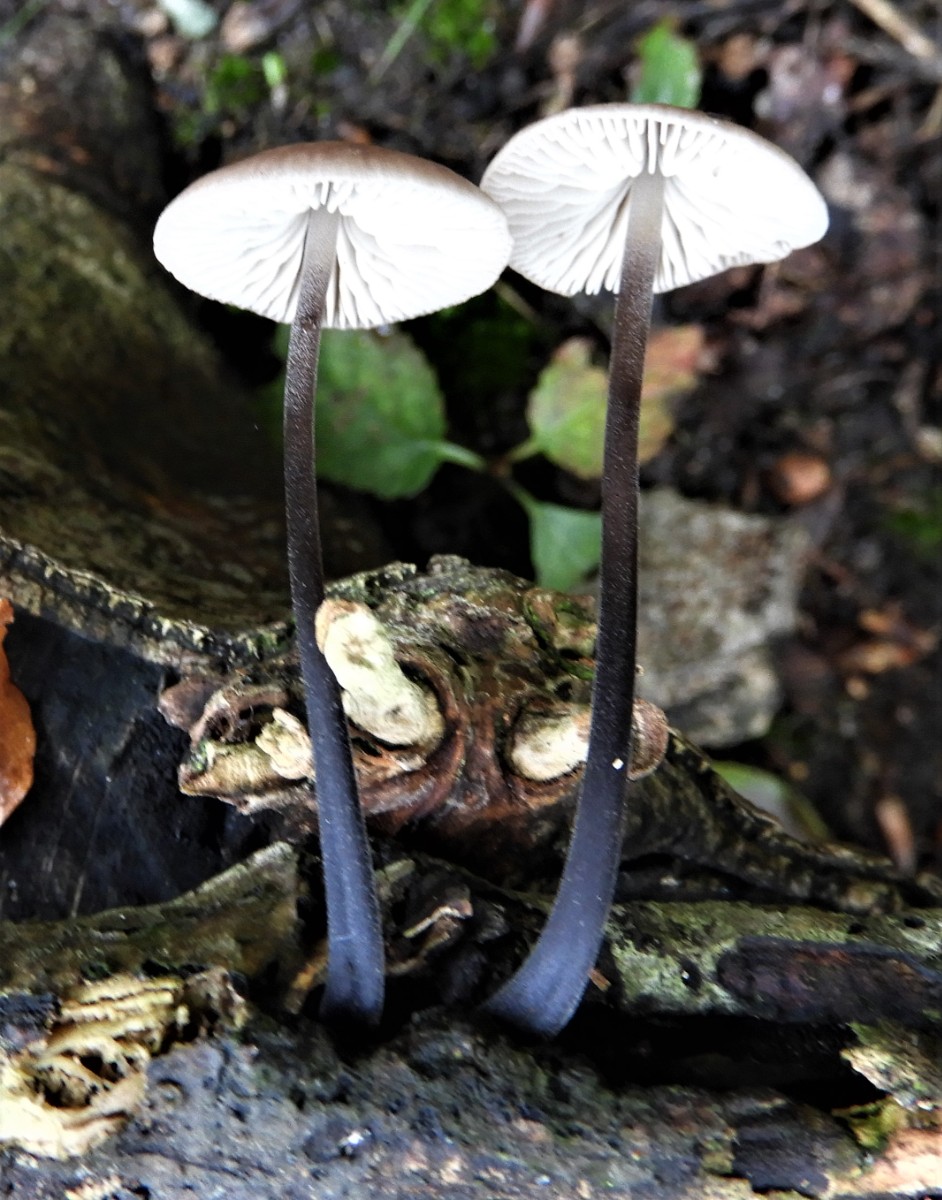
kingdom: Fungi
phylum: Basidiomycota
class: Agaricomycetes
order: Agaricales
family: Omphalotaceae
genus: Mycetinis
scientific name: Mycetinis alliaceus
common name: stor løghat
